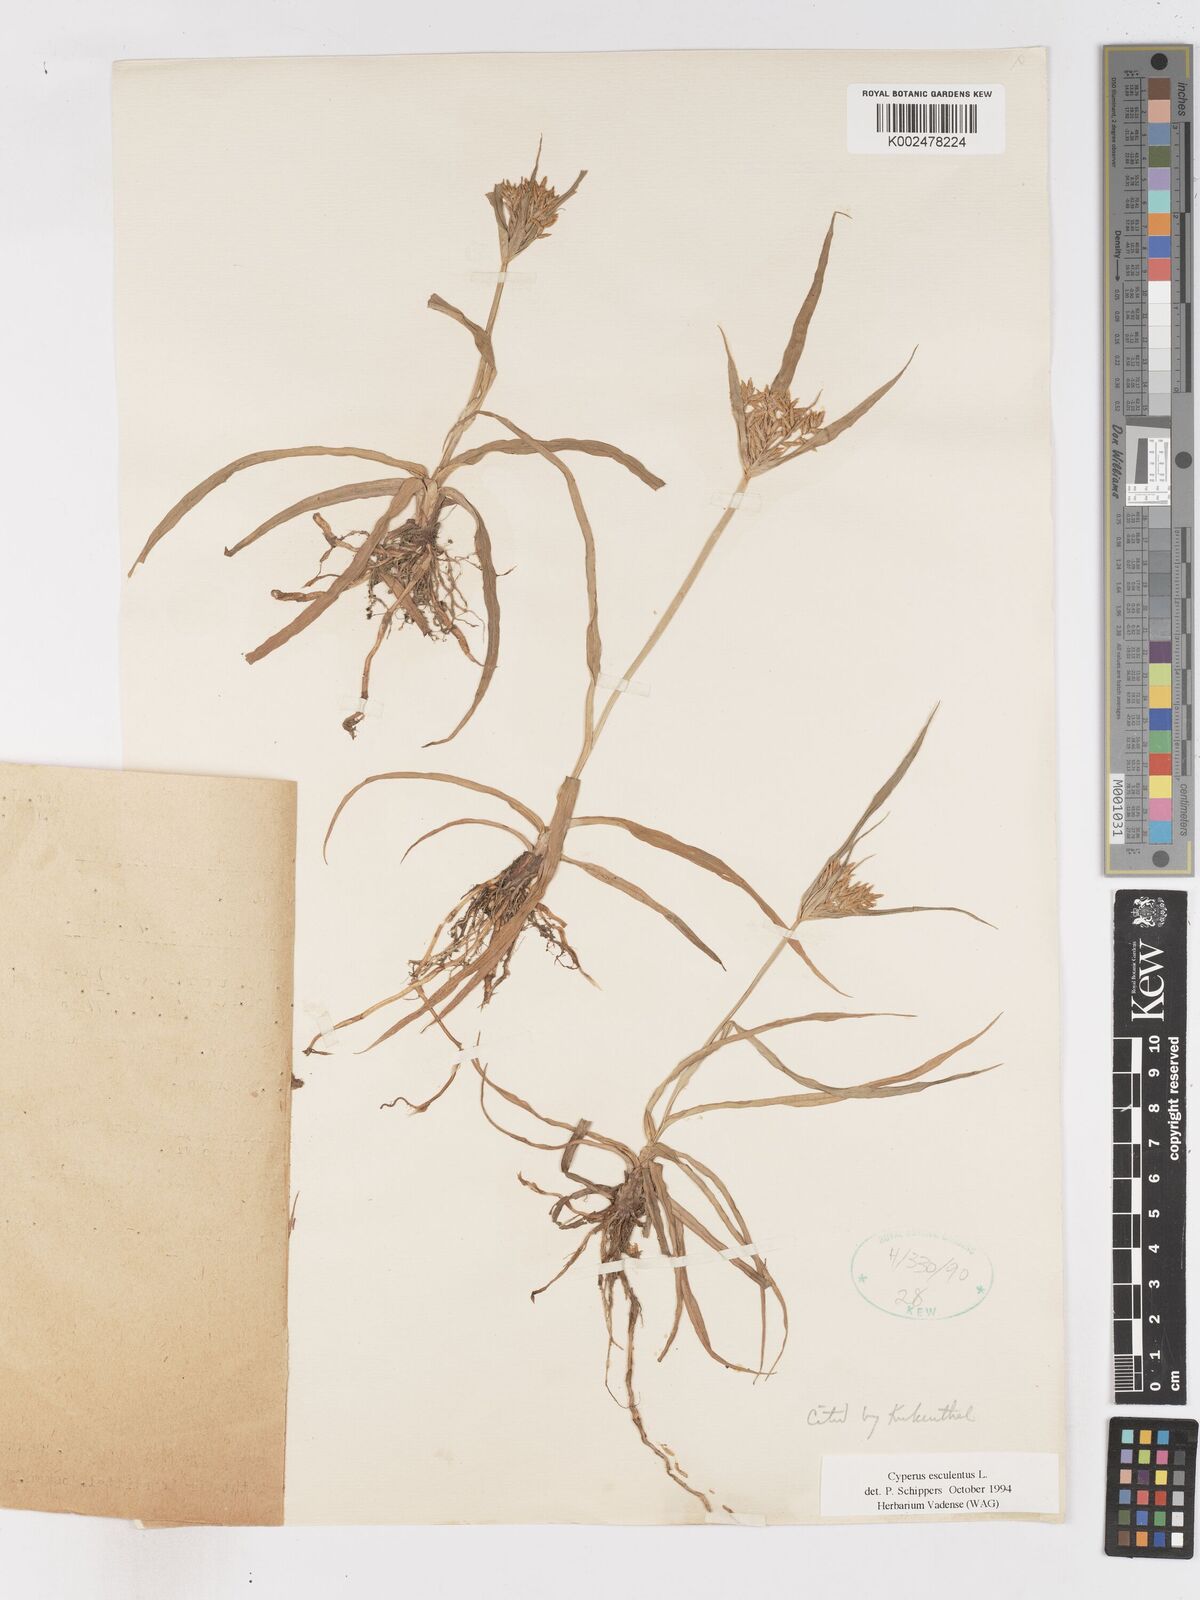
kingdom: Plantae
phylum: Tracheophyta
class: Liliopsida
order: Poales
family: Cyperaceae
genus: Cyperus
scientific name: Cyperus esculentus
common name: Yellow nutsedge
